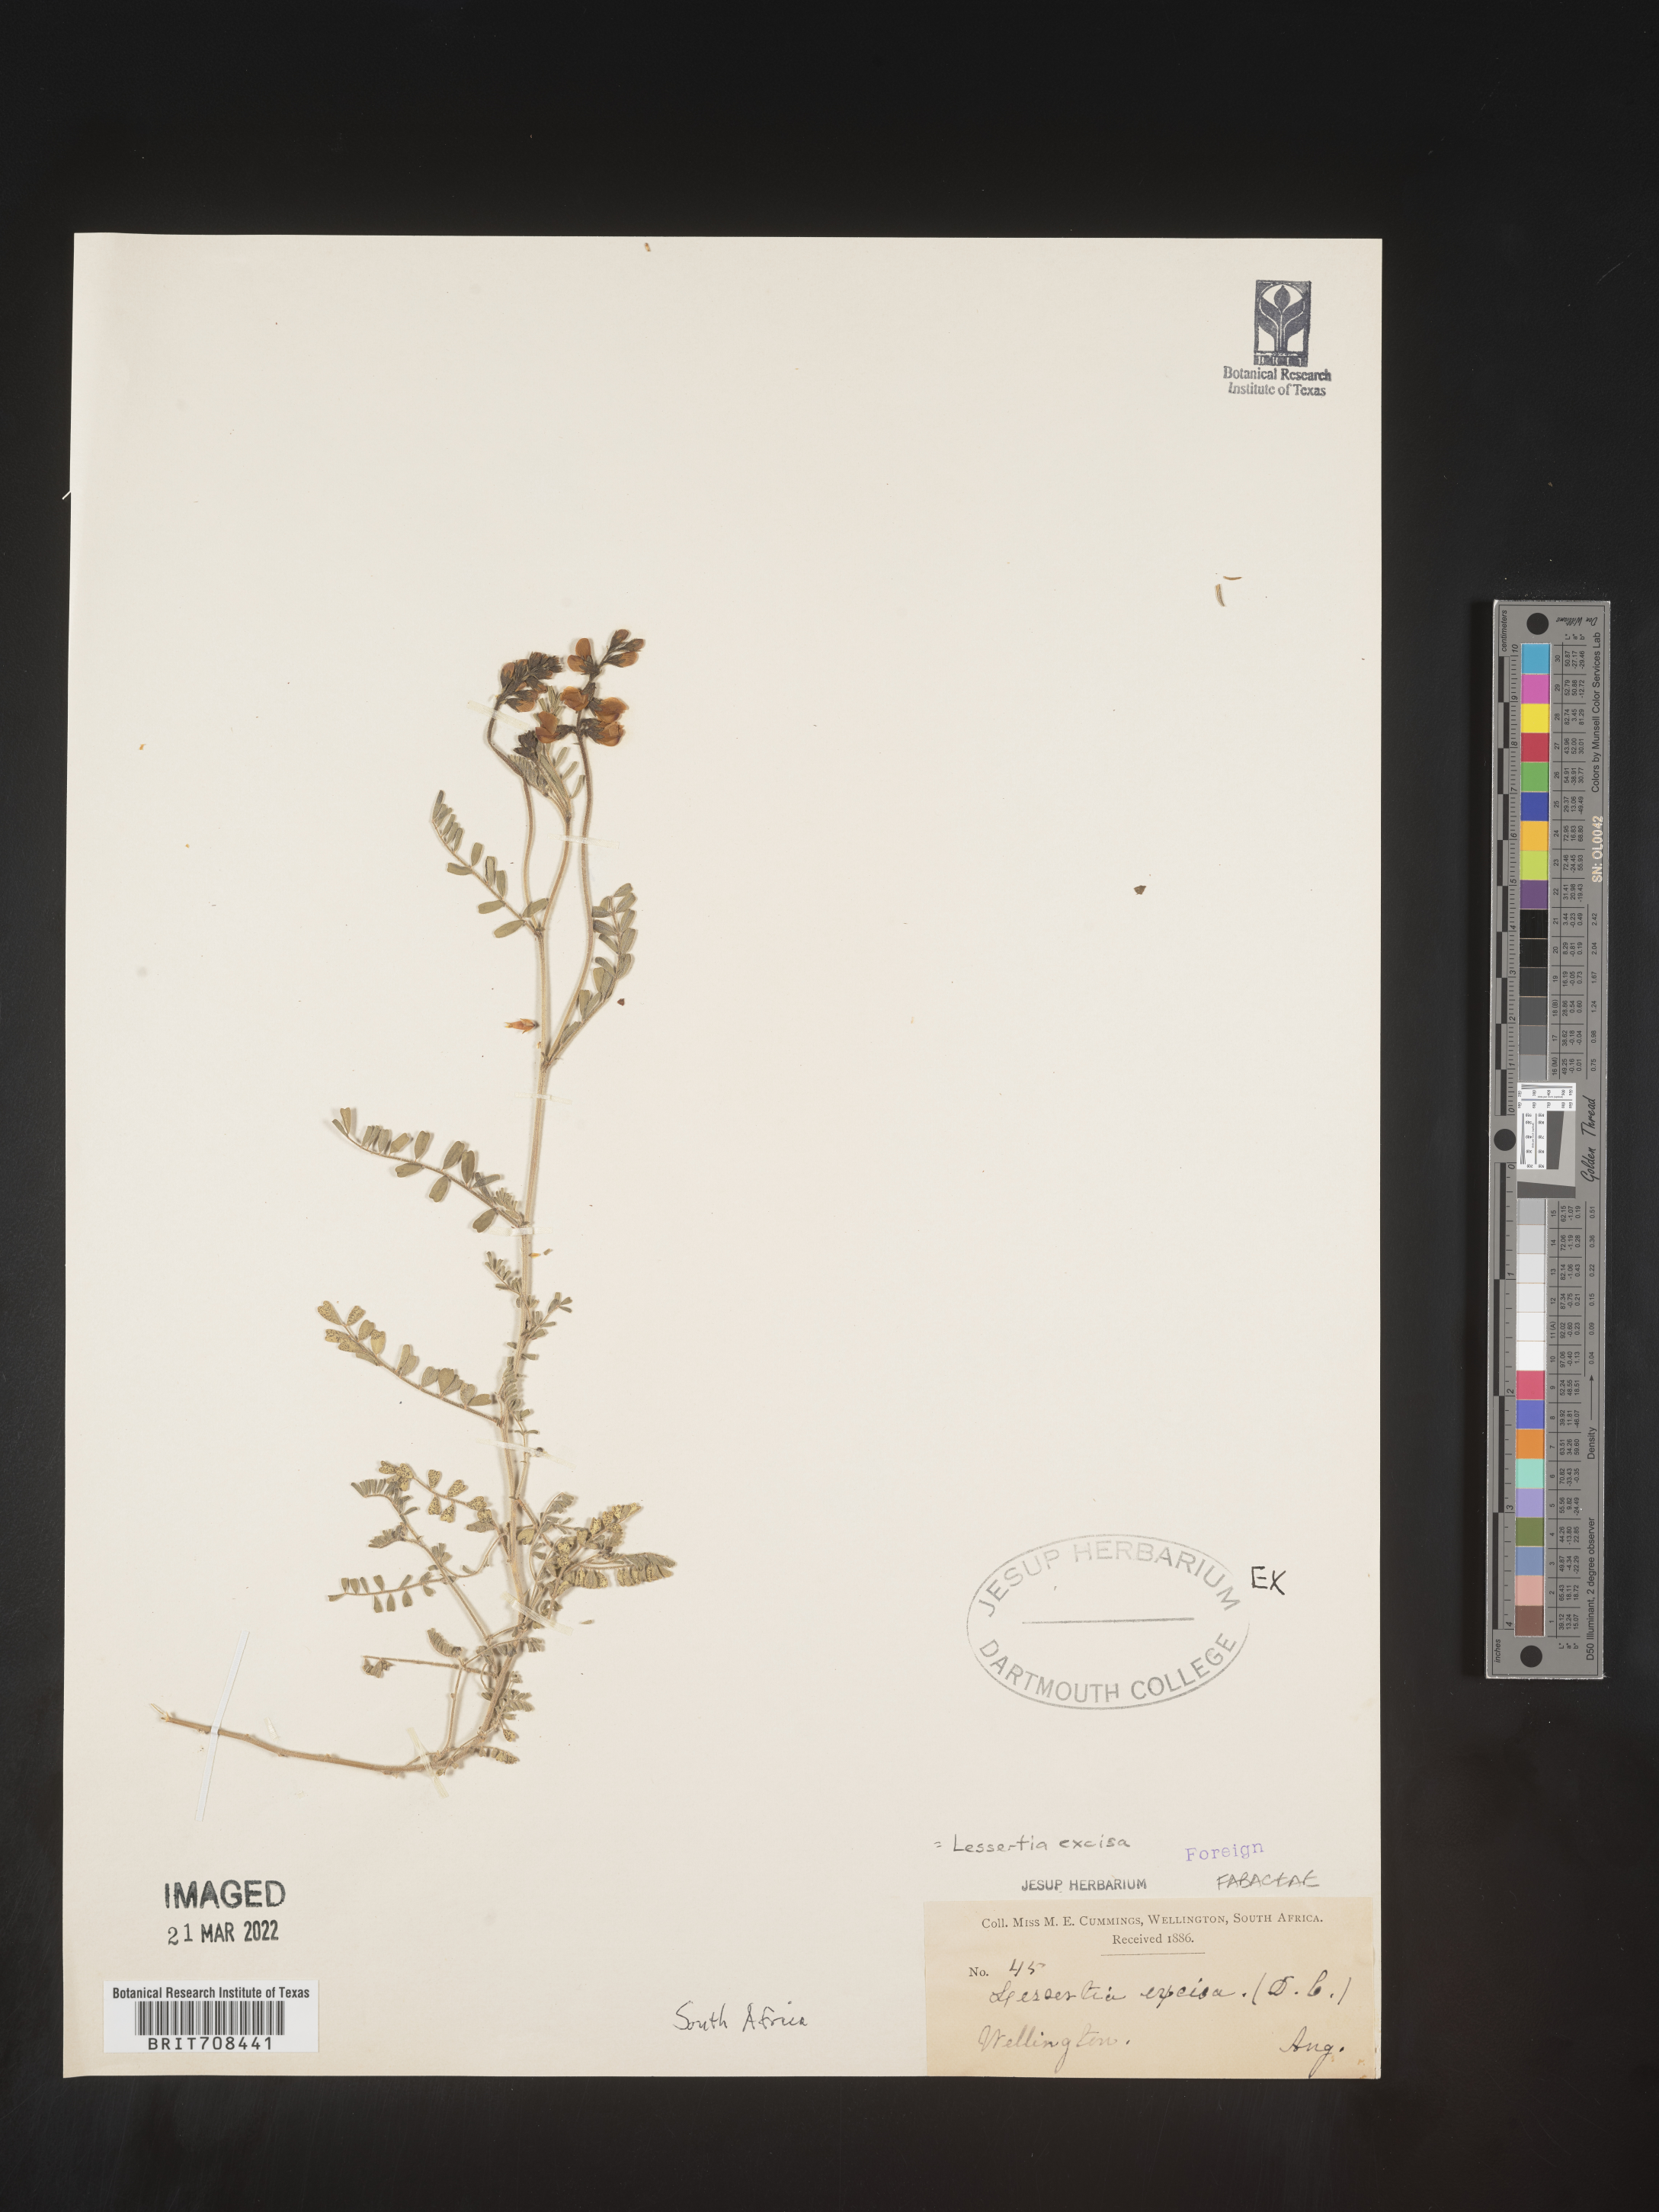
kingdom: Plantae
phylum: Tracheophyta
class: Magnoliopsida
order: Fabales
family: Fabaceae
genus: Lessertia
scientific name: Lessertia
